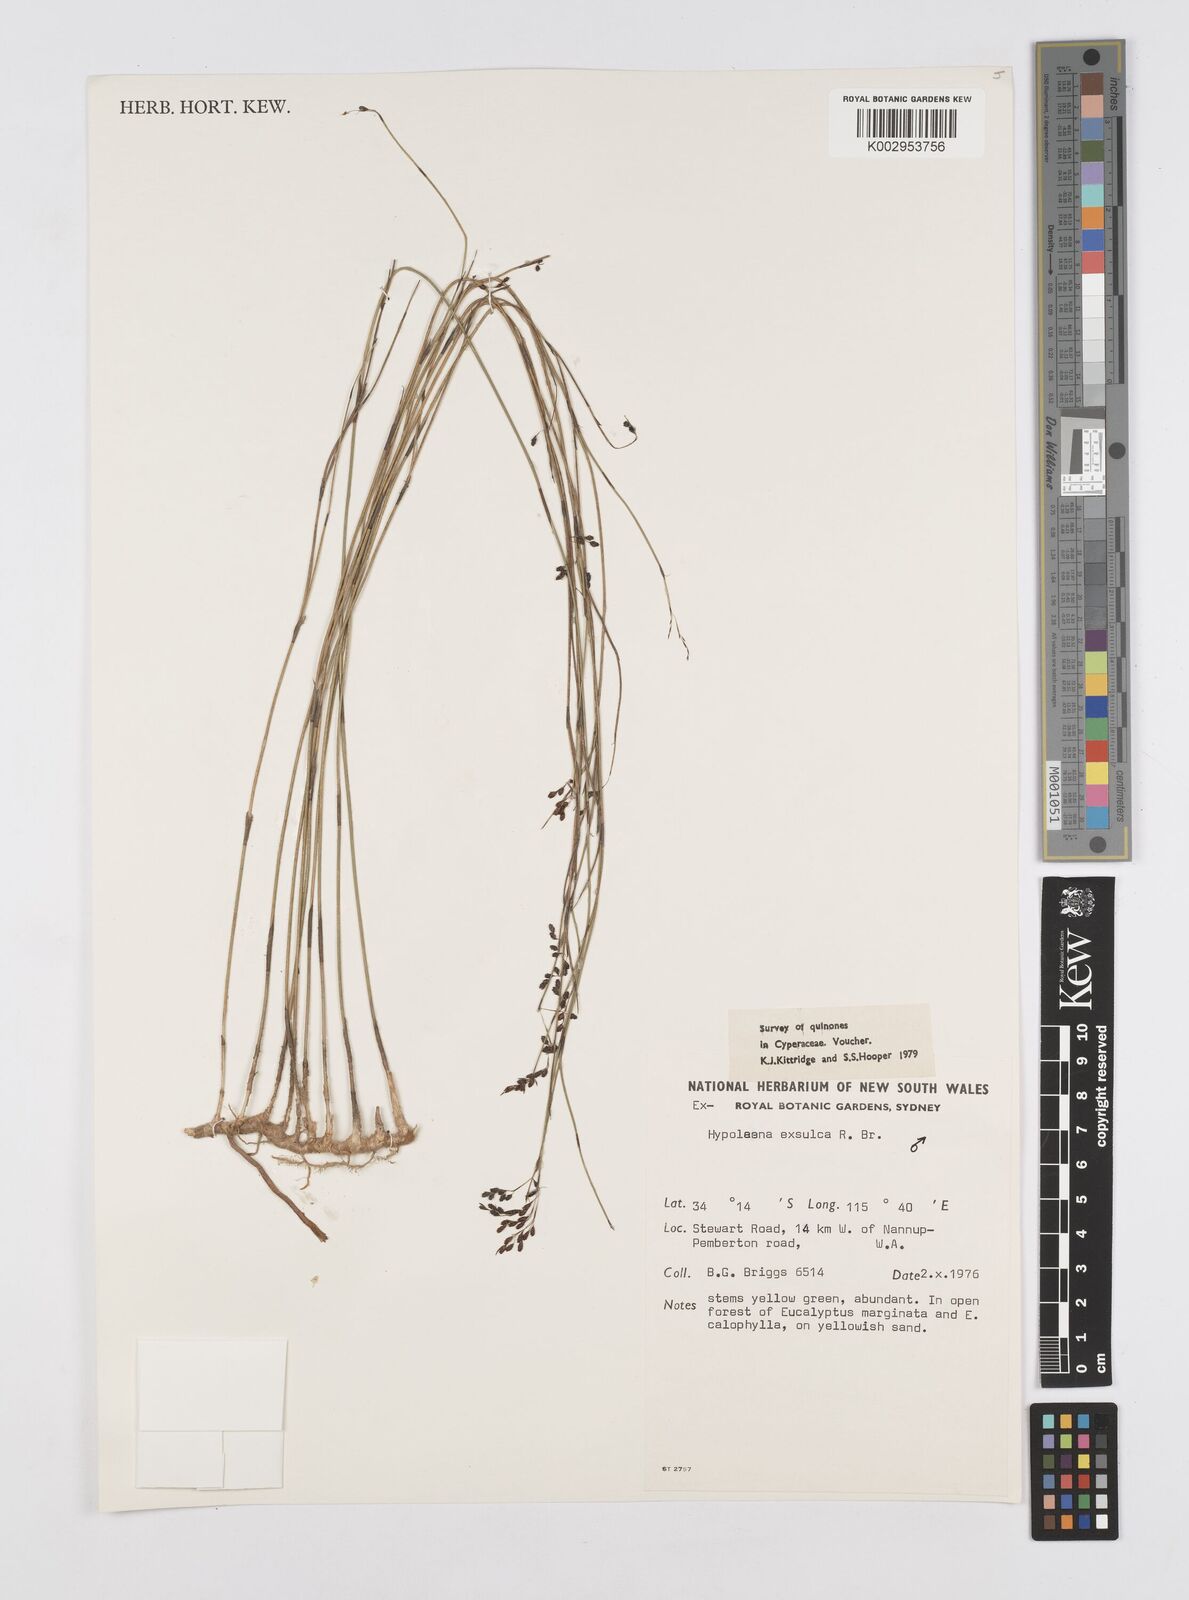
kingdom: Plantae
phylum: Tracheophyta
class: Liliopsida
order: Poales
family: Restionaceae
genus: Hypolaena
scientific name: Hypolaena exsulca
